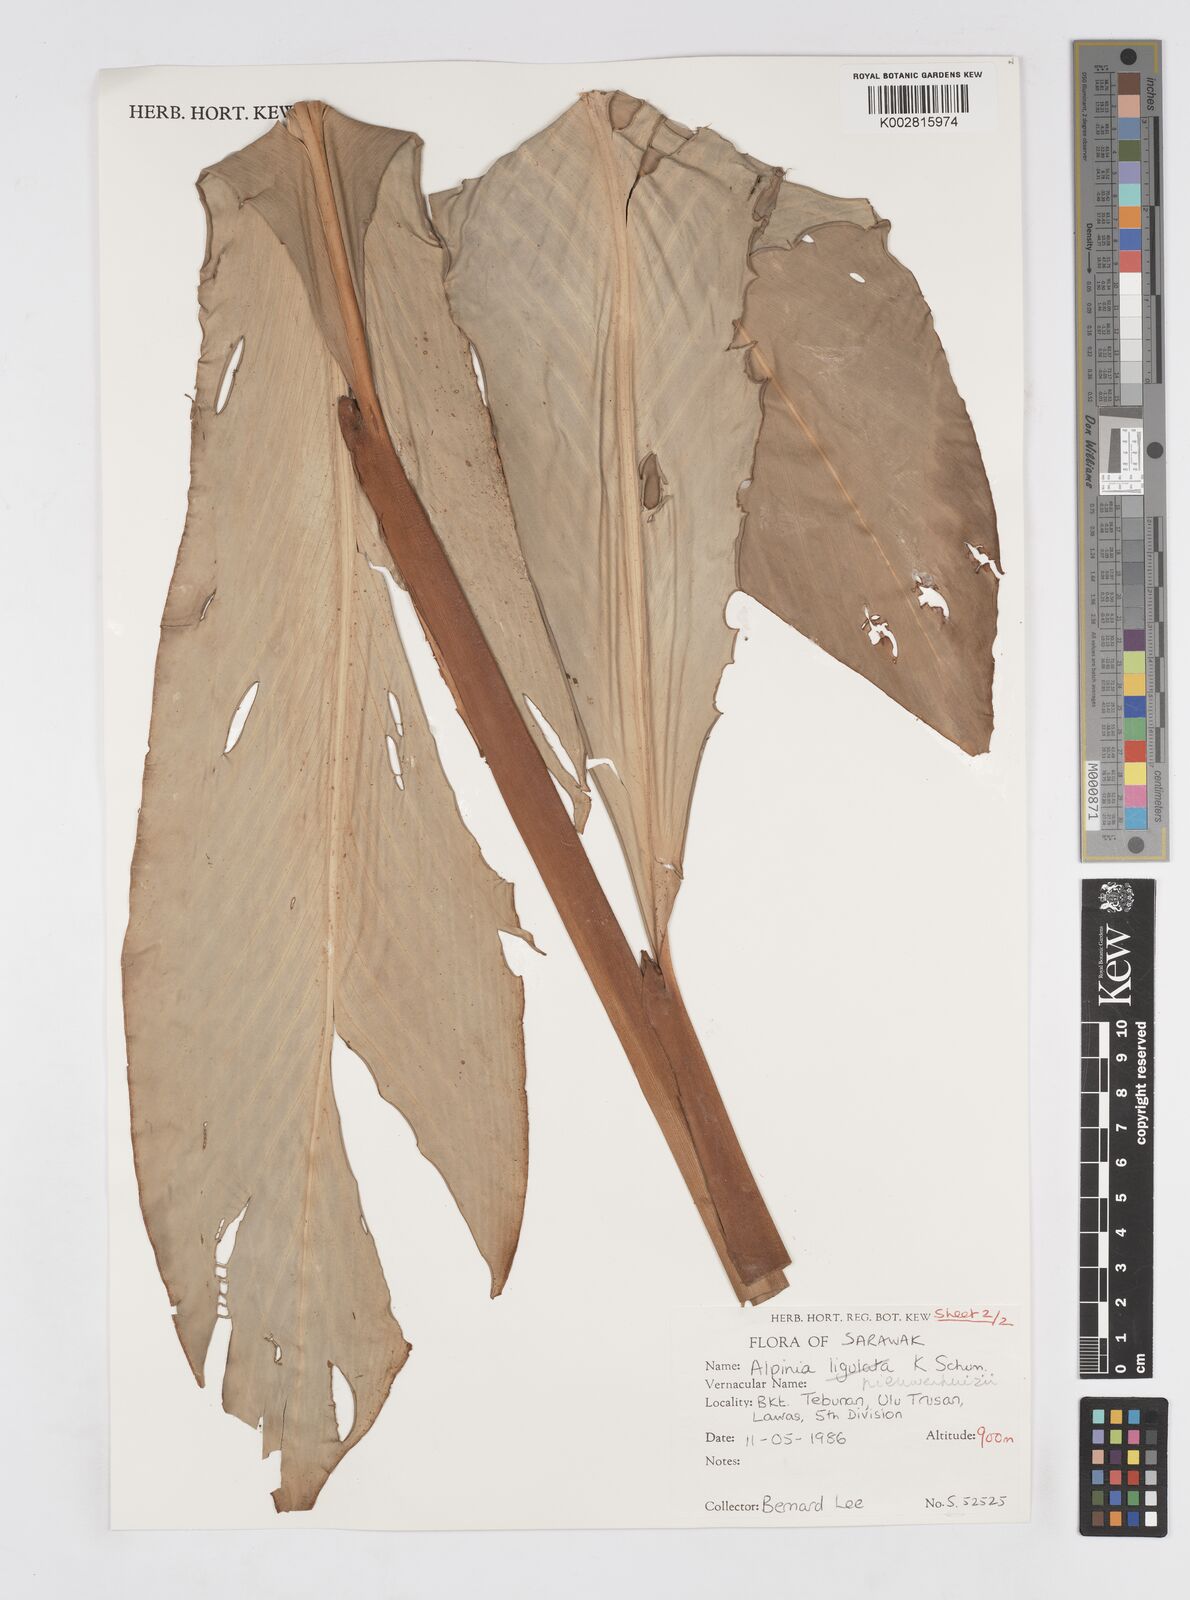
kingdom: Plantae
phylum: Tracheophyta
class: Liliopsida
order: Zingiberales
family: Zingiberaceae
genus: Alpinia
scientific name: Alpinia nieuwenhuizii
